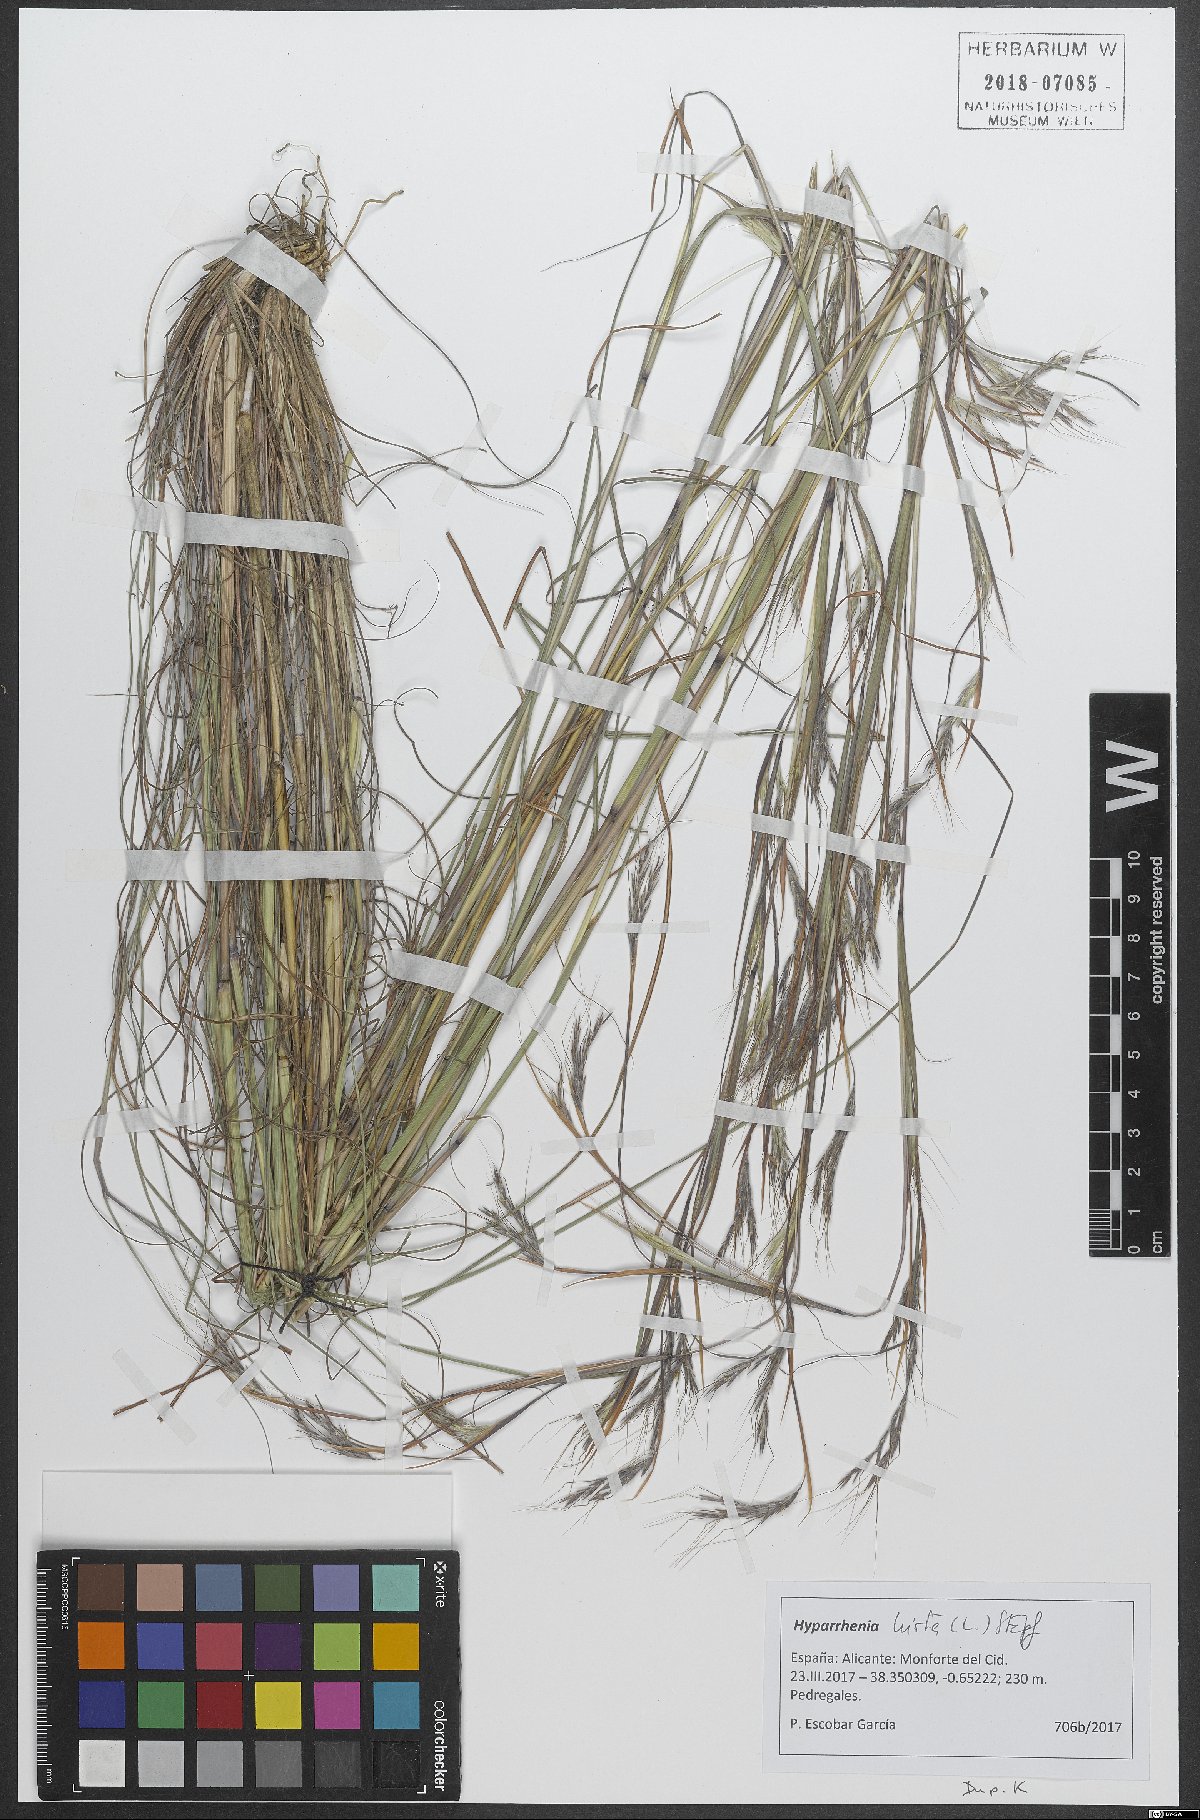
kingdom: Plantae
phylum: Tracheophyta
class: Liliopsida
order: Poales
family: Poaceae
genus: Hyparrhenia
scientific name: Hyparrhenia hirta
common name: Thatching grass
